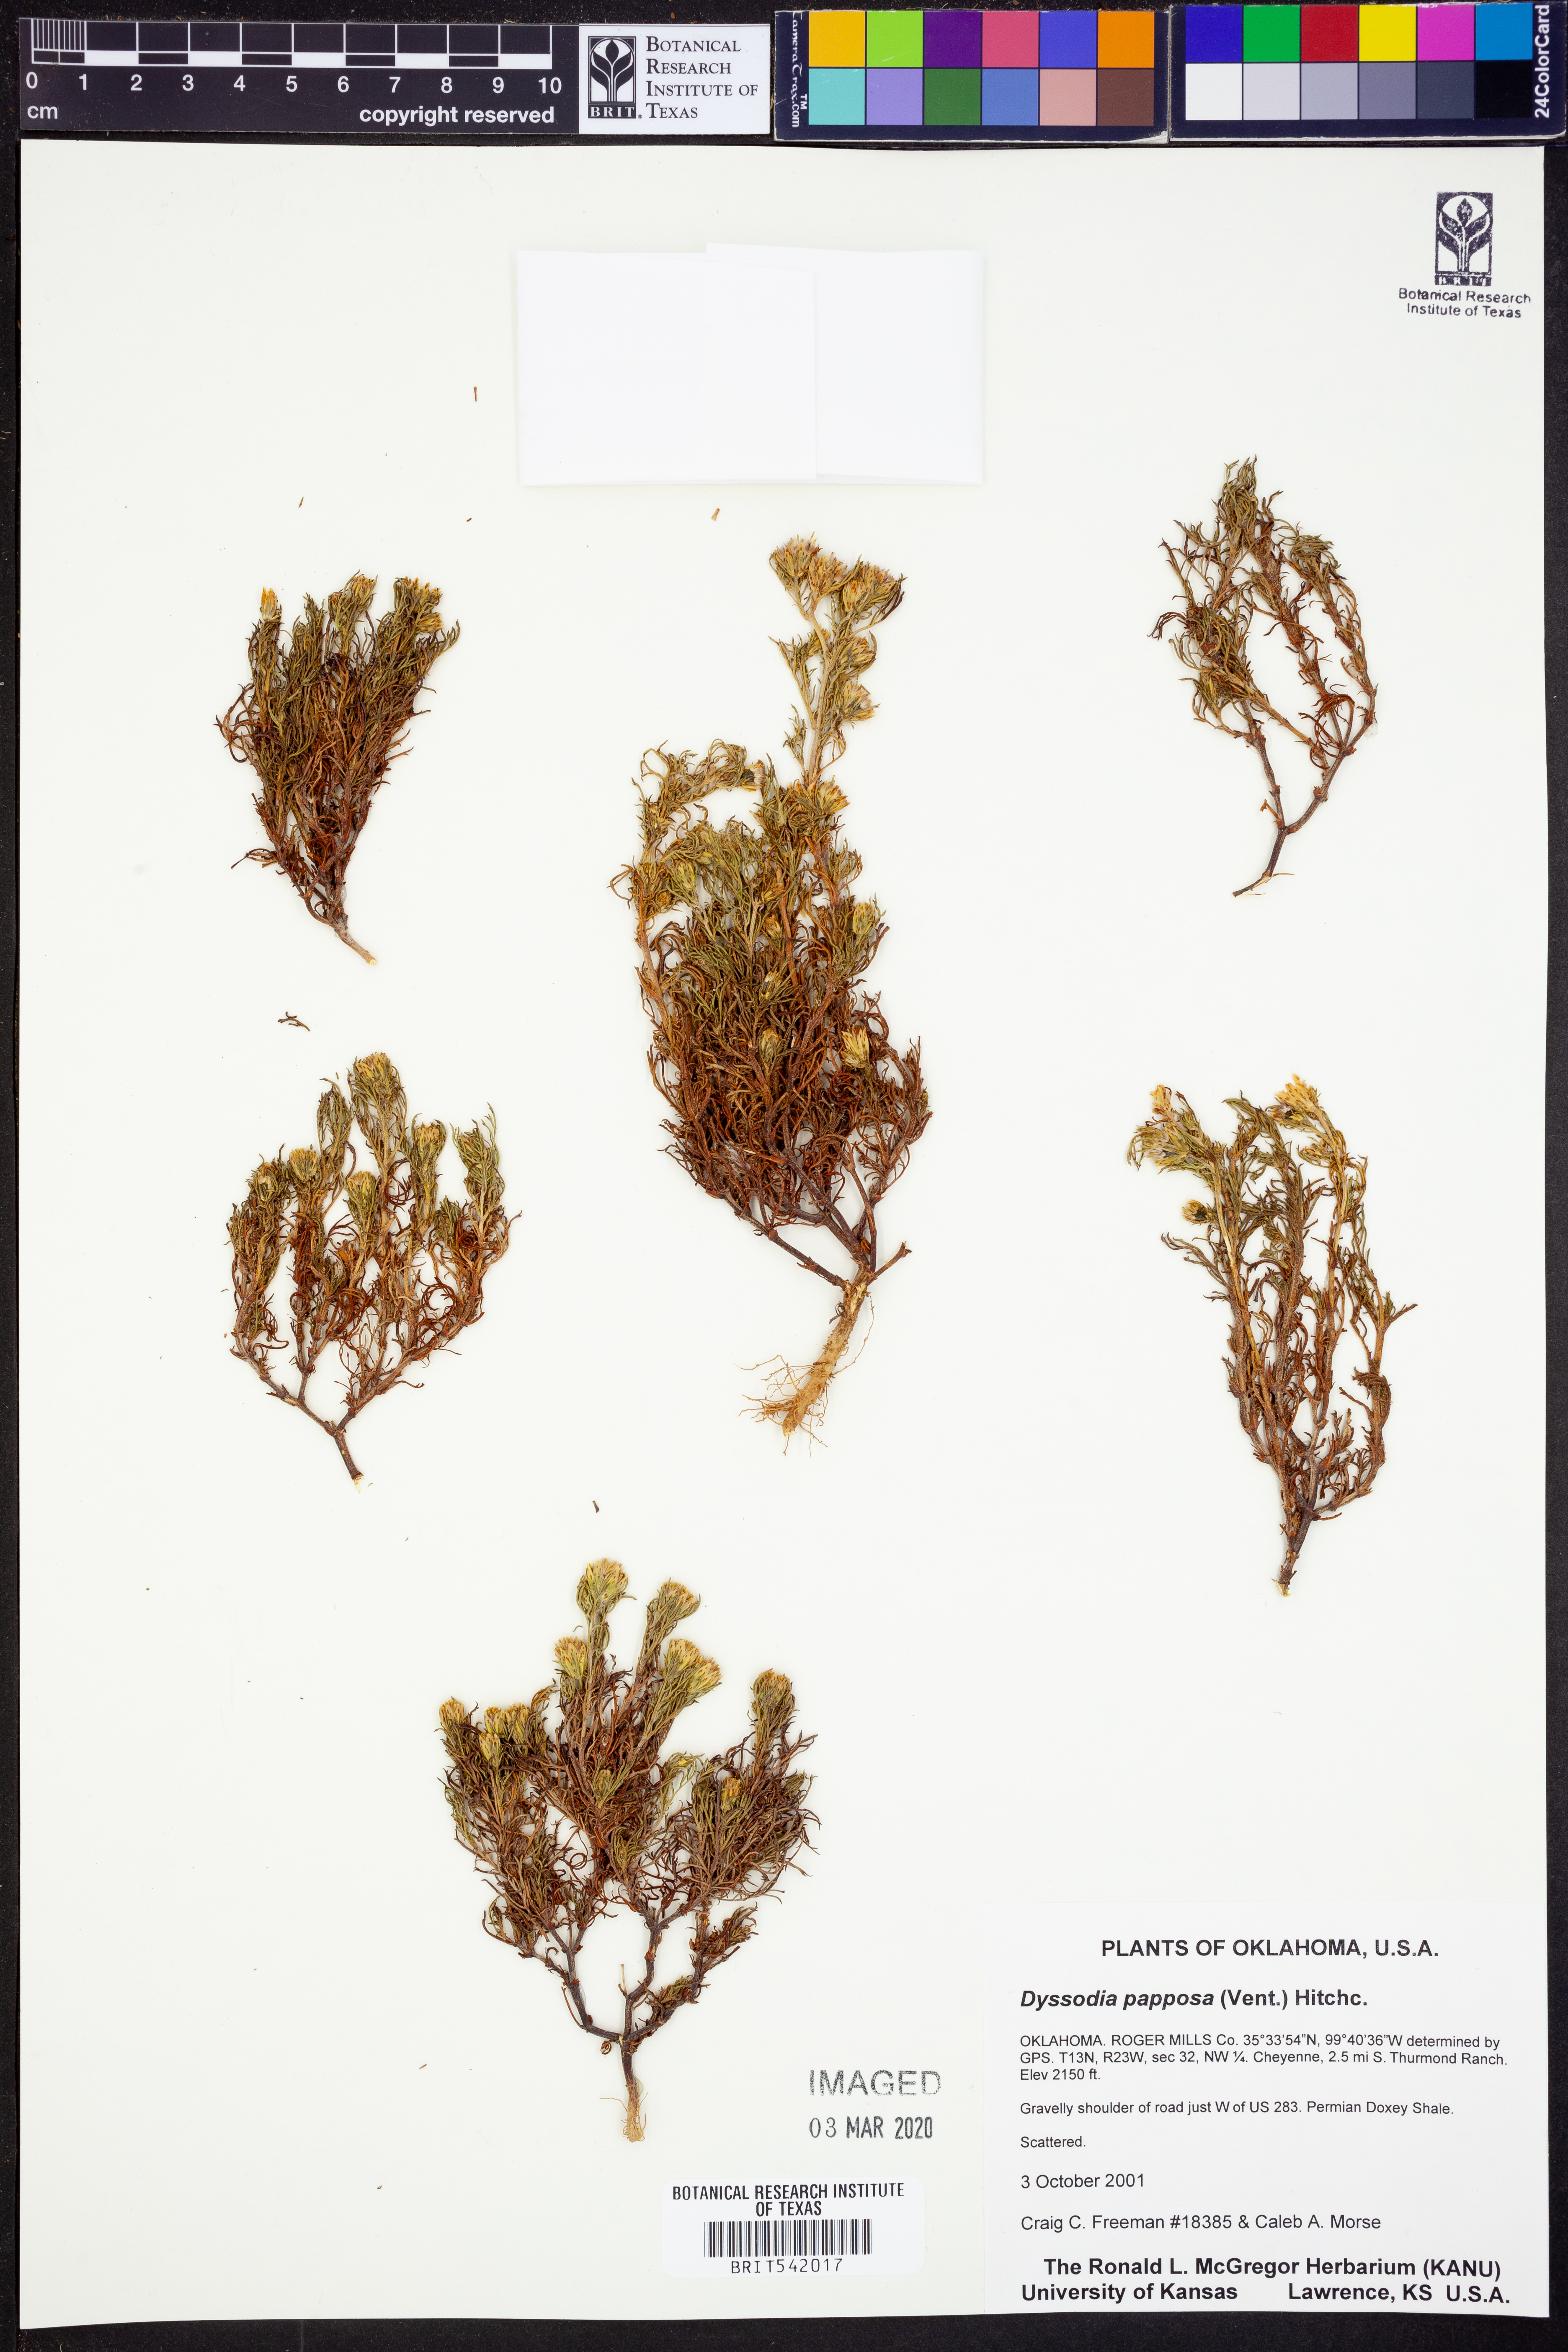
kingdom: Plantae
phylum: Tracheophyta
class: Magnoliopsida
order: Asterales
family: Asteraceae
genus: Dyssodia
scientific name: Dyssodia papposa
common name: Dogweed
